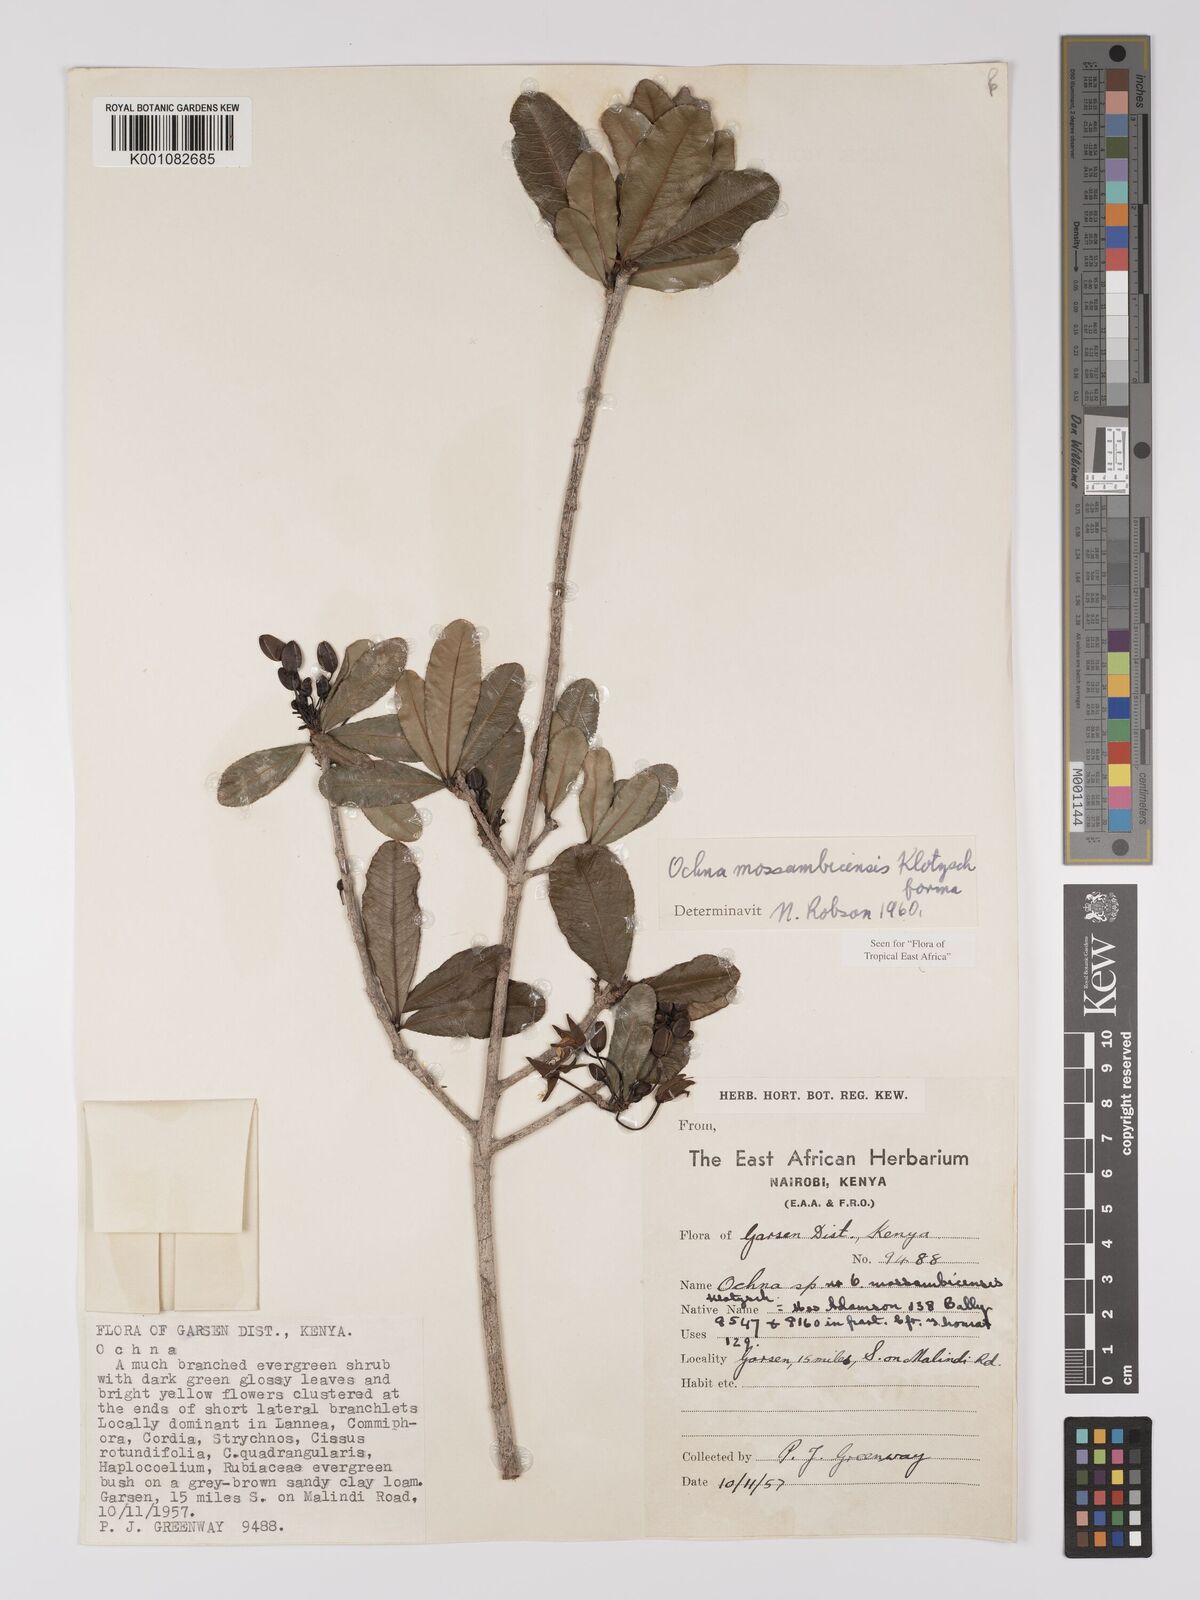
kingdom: Plantae
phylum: Tracheophyta
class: Magnoliopsida
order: Malpighiales
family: Ochnaceae
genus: Ochna
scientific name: Ochna atropurpurea
